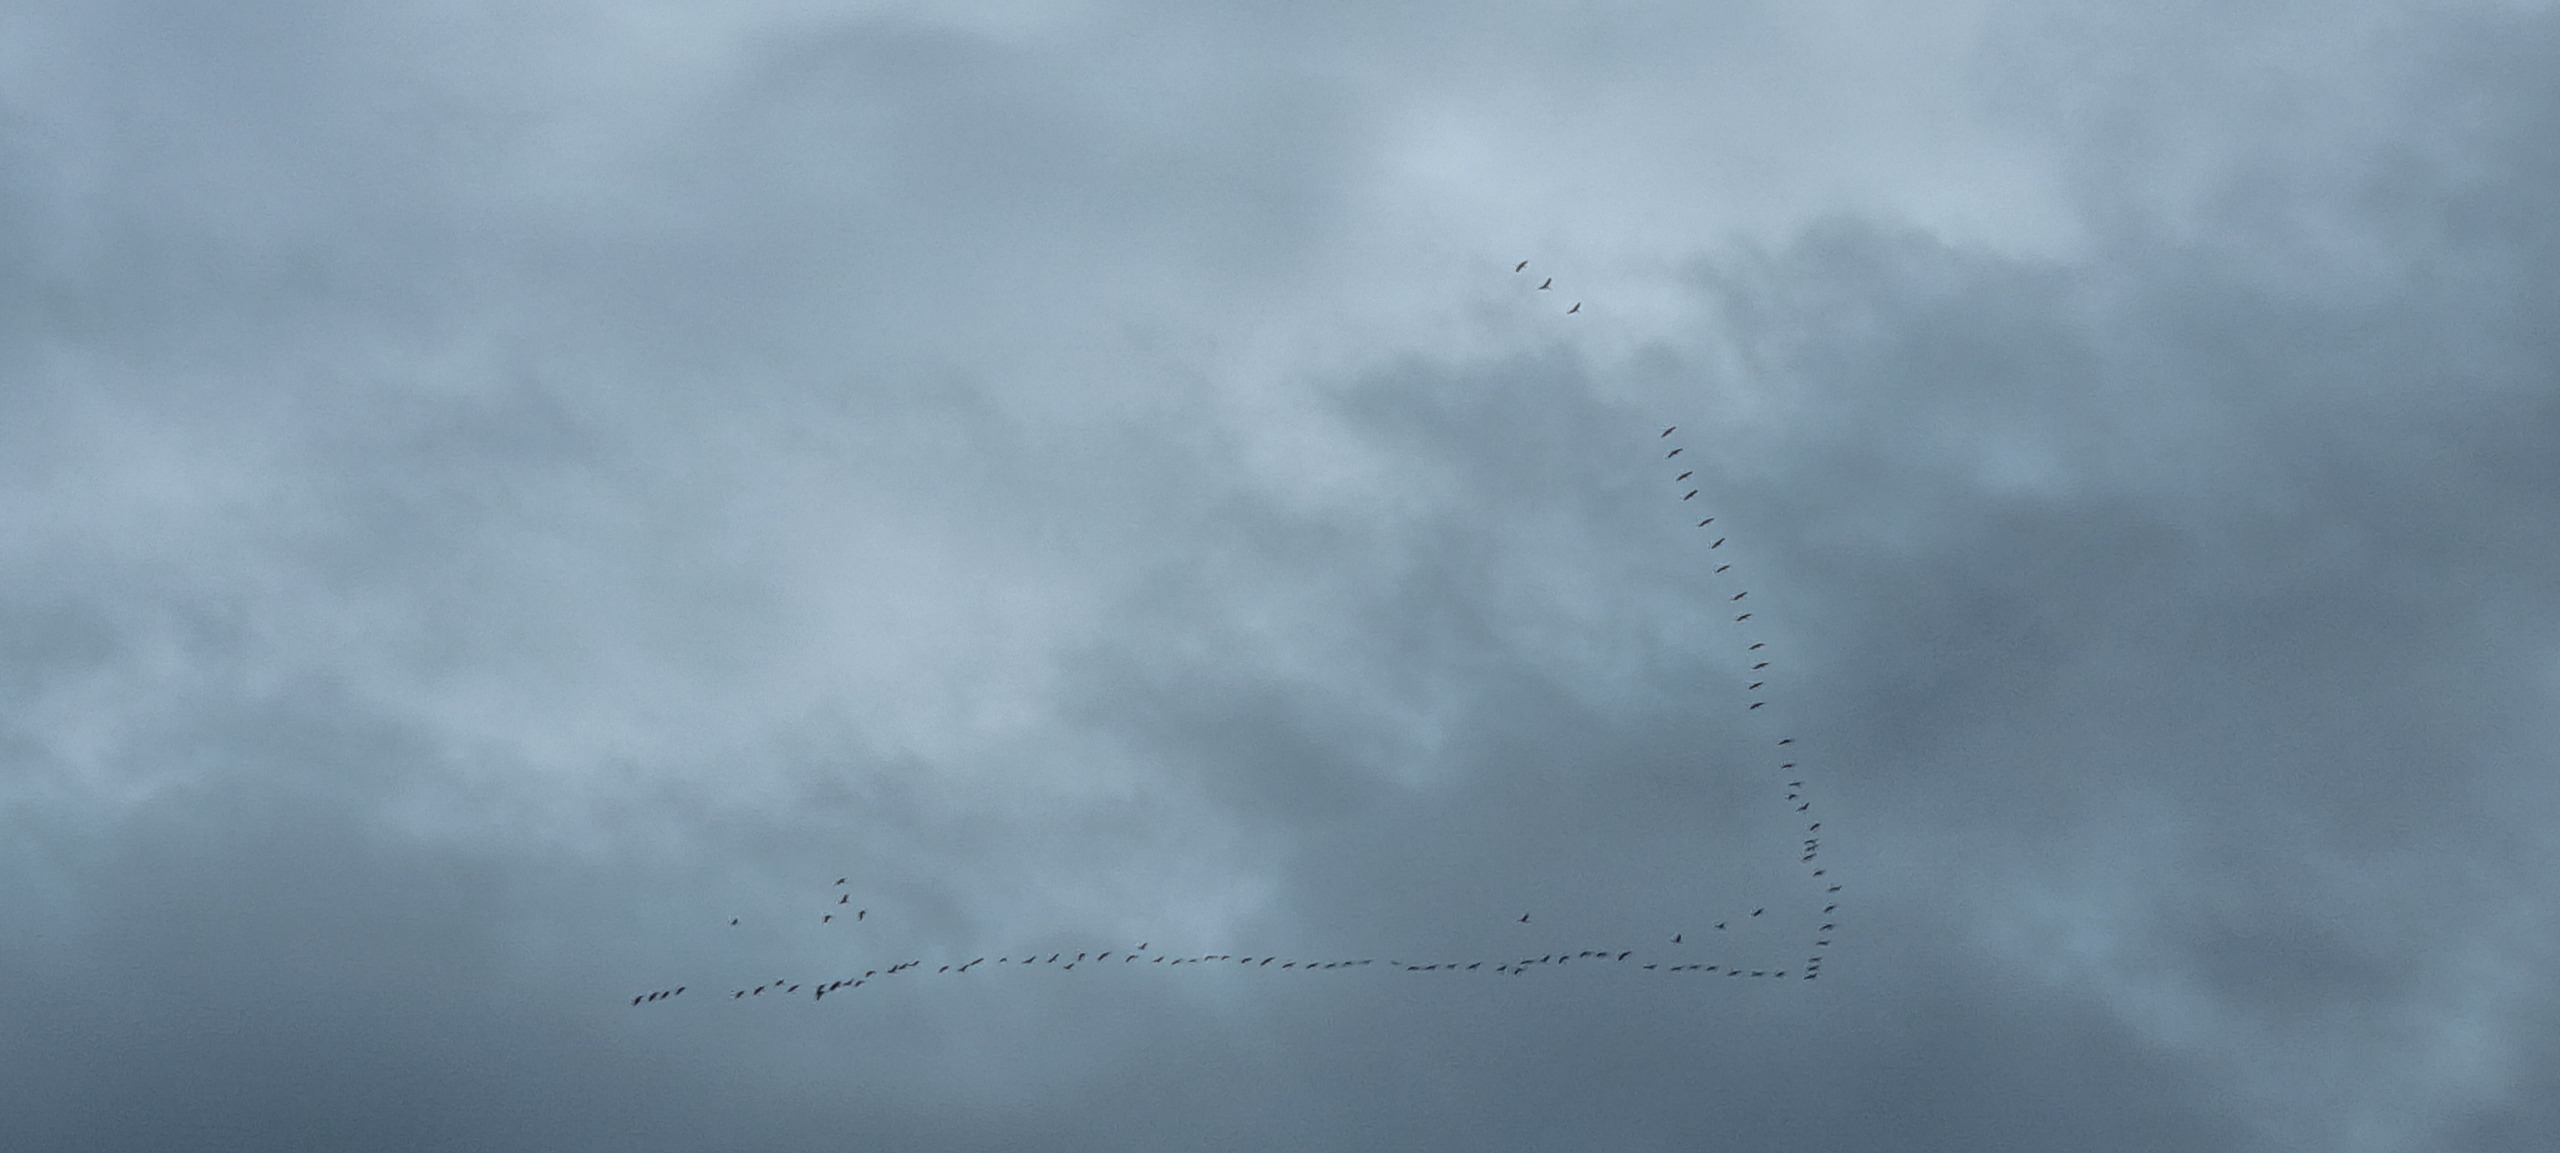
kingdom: Animalia
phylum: Chordata
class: Aves
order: Gruiformes
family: Gruidae
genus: Grus
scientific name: Grus grus
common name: Trane
